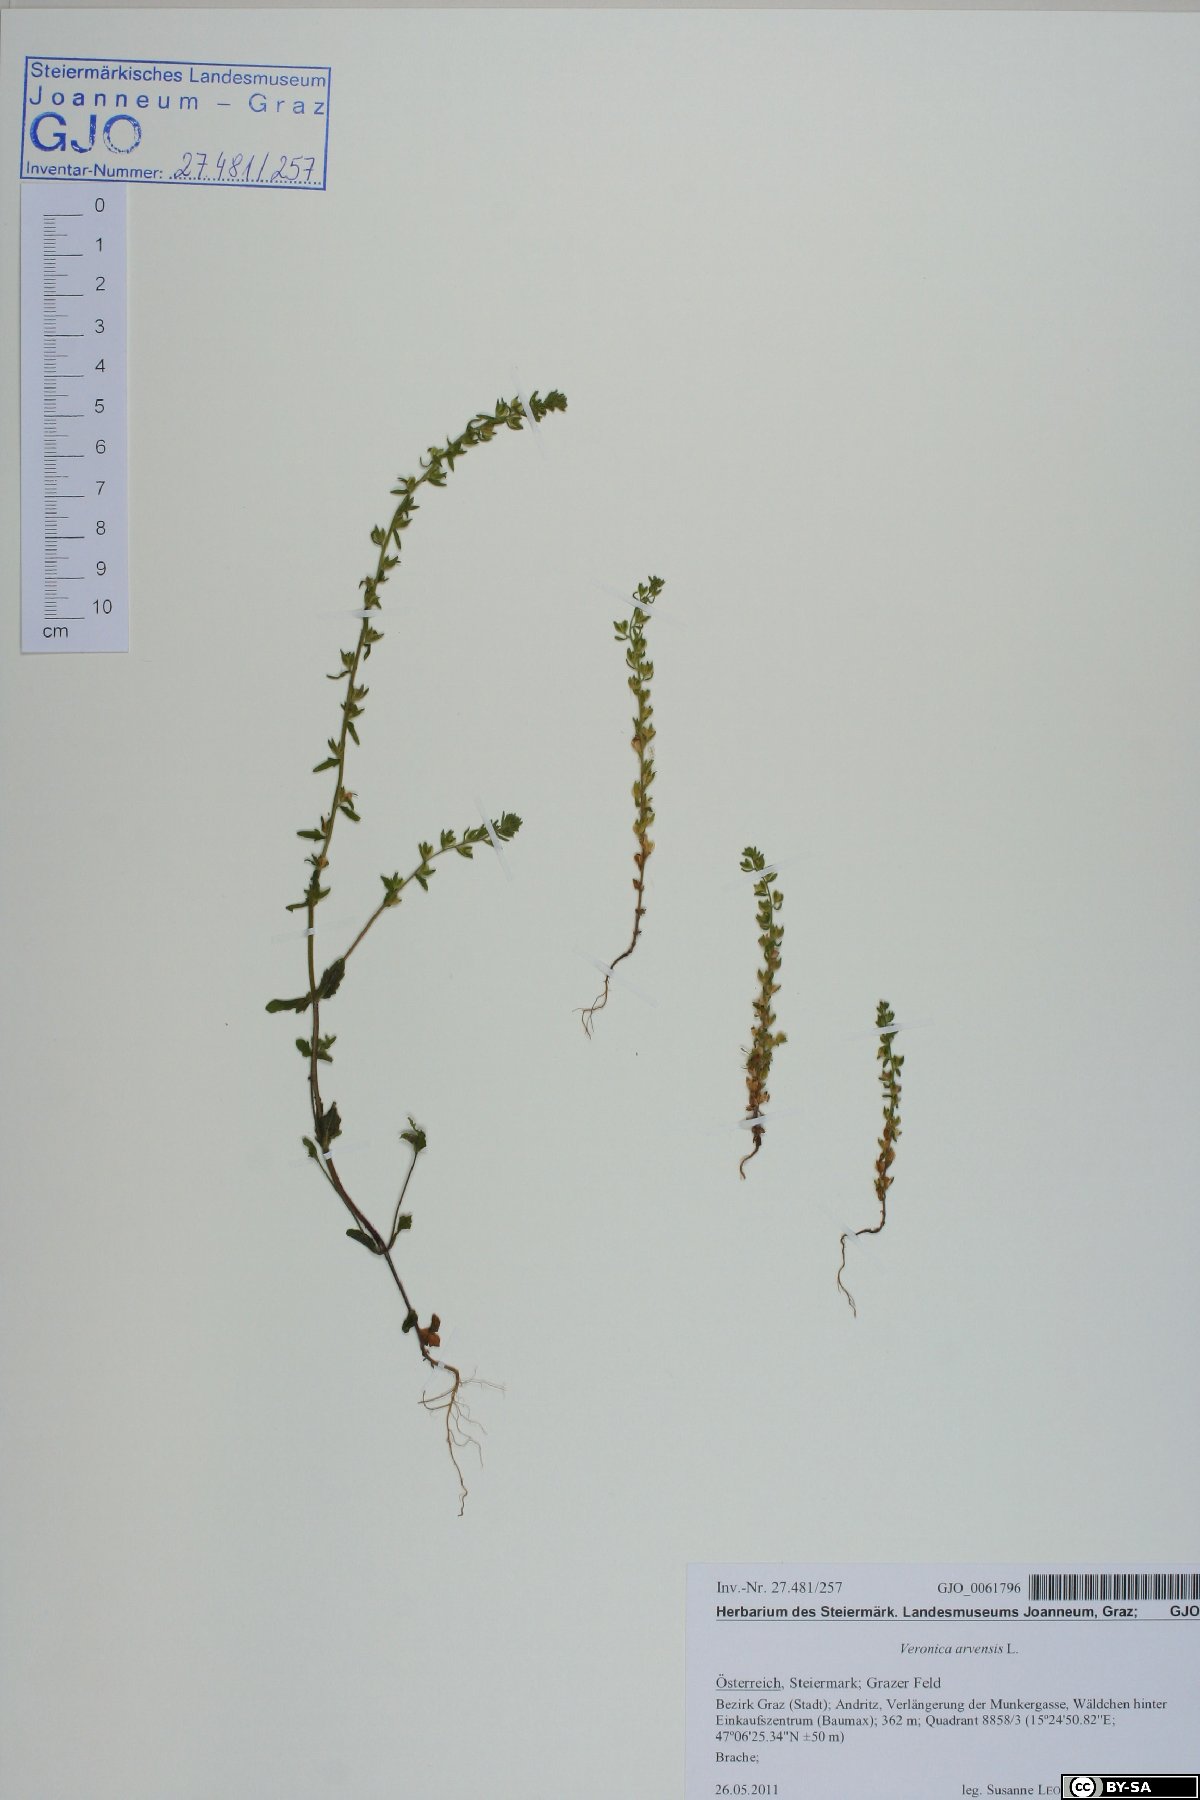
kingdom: Plantae
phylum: Tracheophyta
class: Magnoliopsida
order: Lamiales
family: Plantaginaceae
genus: Veronica
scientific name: Veronica arvensis
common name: Corn speedwell
